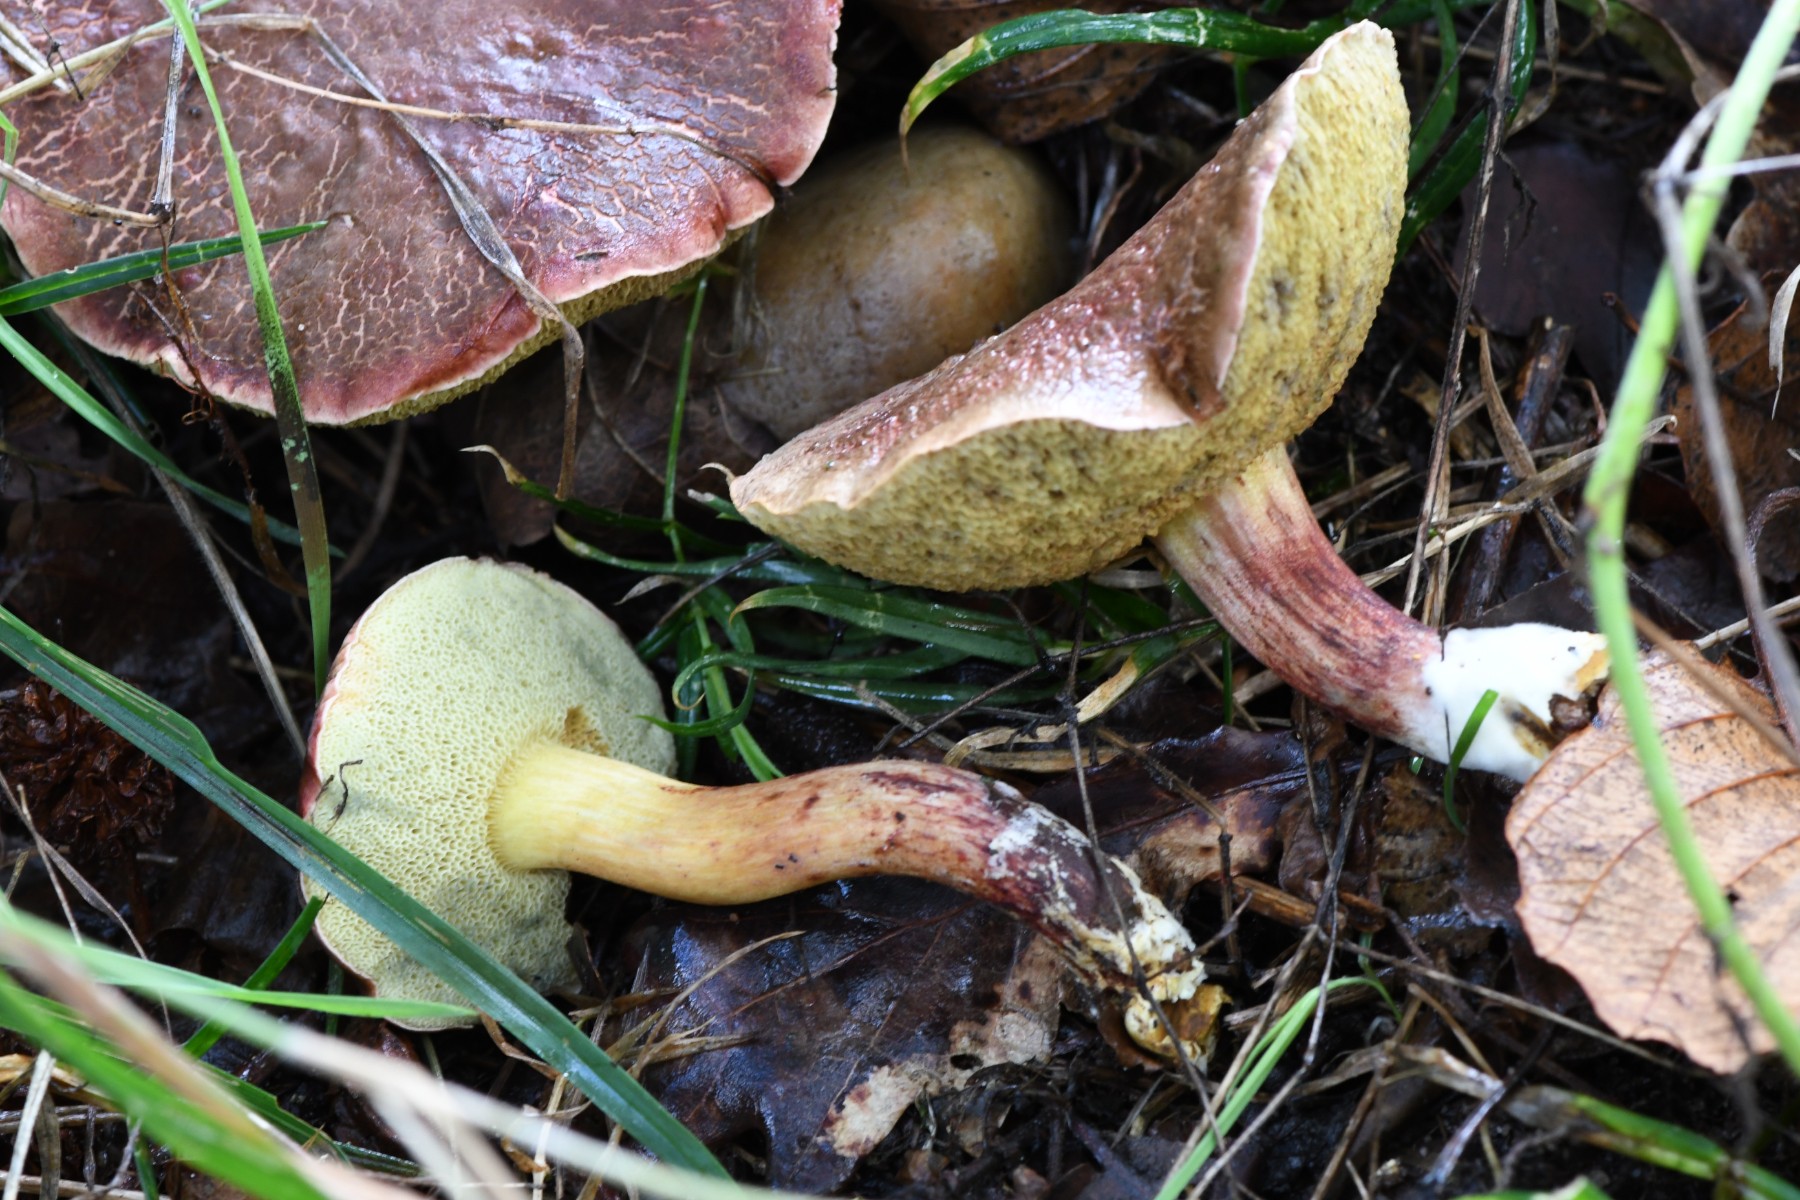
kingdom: Fungi
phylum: Basidiomycota
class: Agaricomycetes
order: Boletales
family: Boletaceae
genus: Xerocomellus
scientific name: Xerocomellus ripariellus
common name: sump-rørhat
